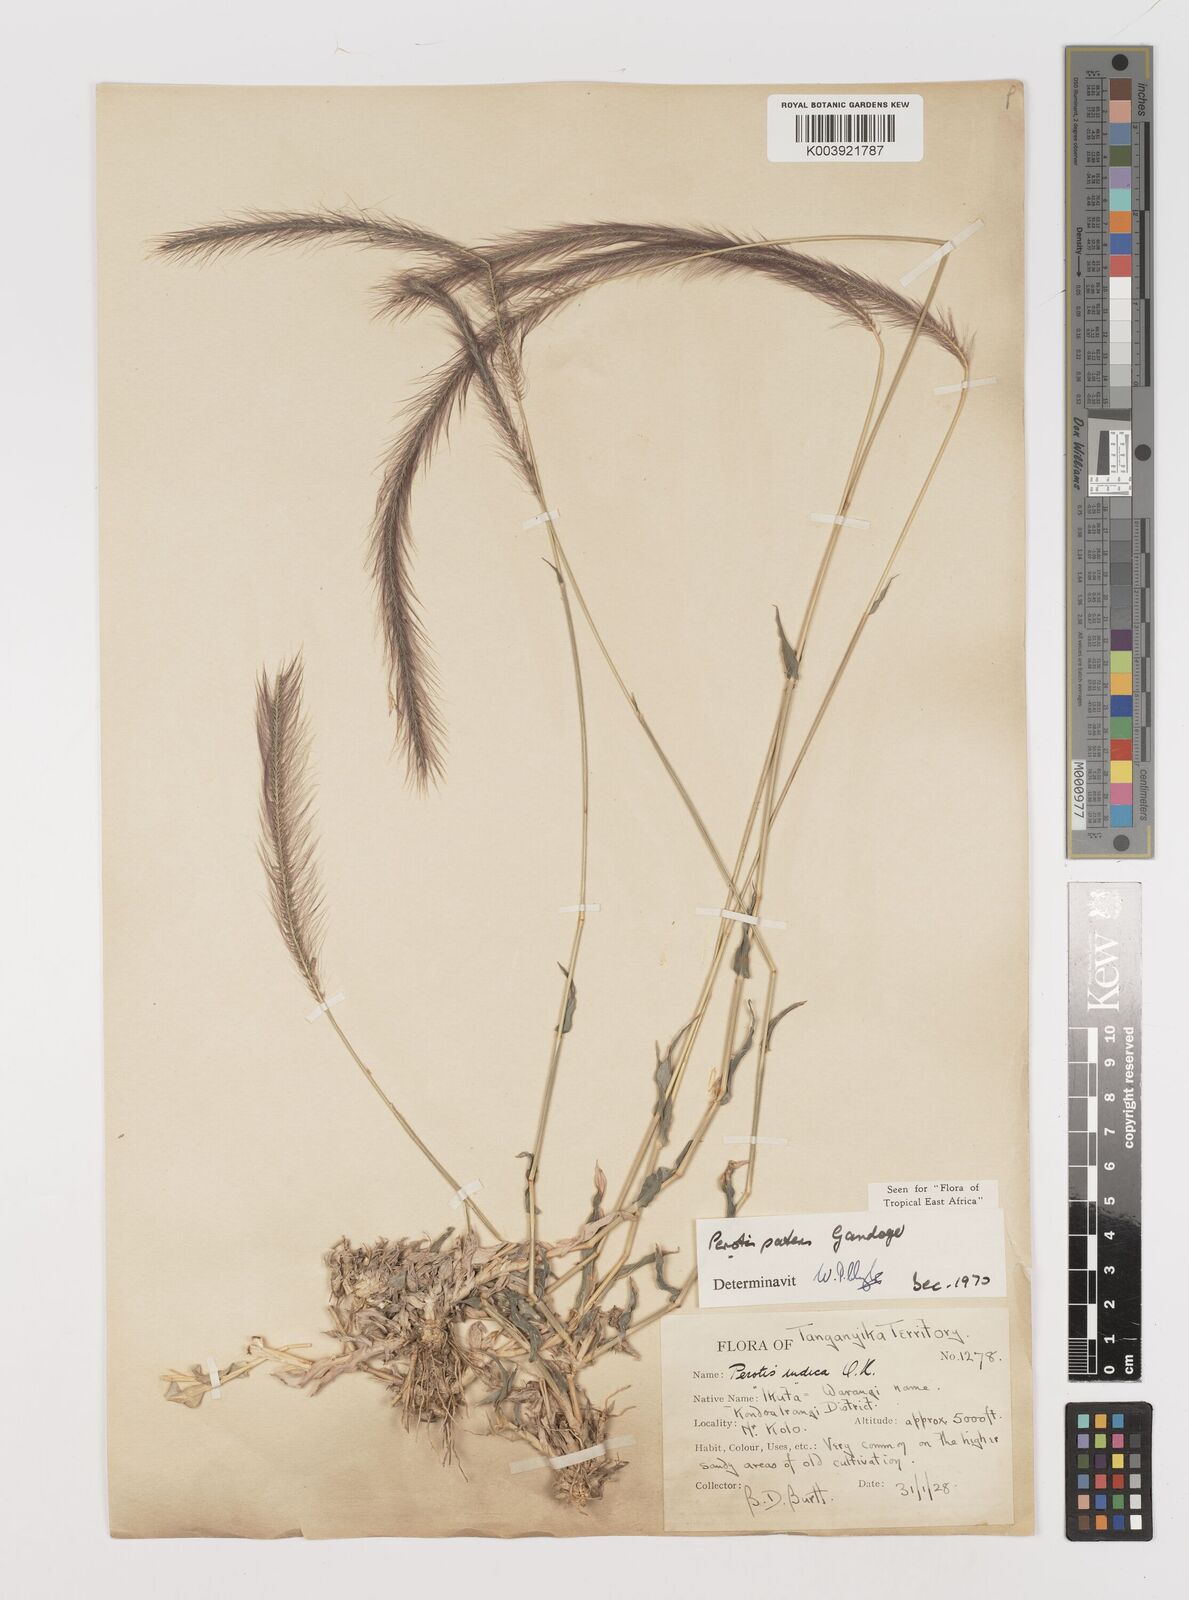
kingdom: Plantae
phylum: Tracheophyta
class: Liliopsida
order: Poales
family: Poaceae
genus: Perotis
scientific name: Perotis patens
